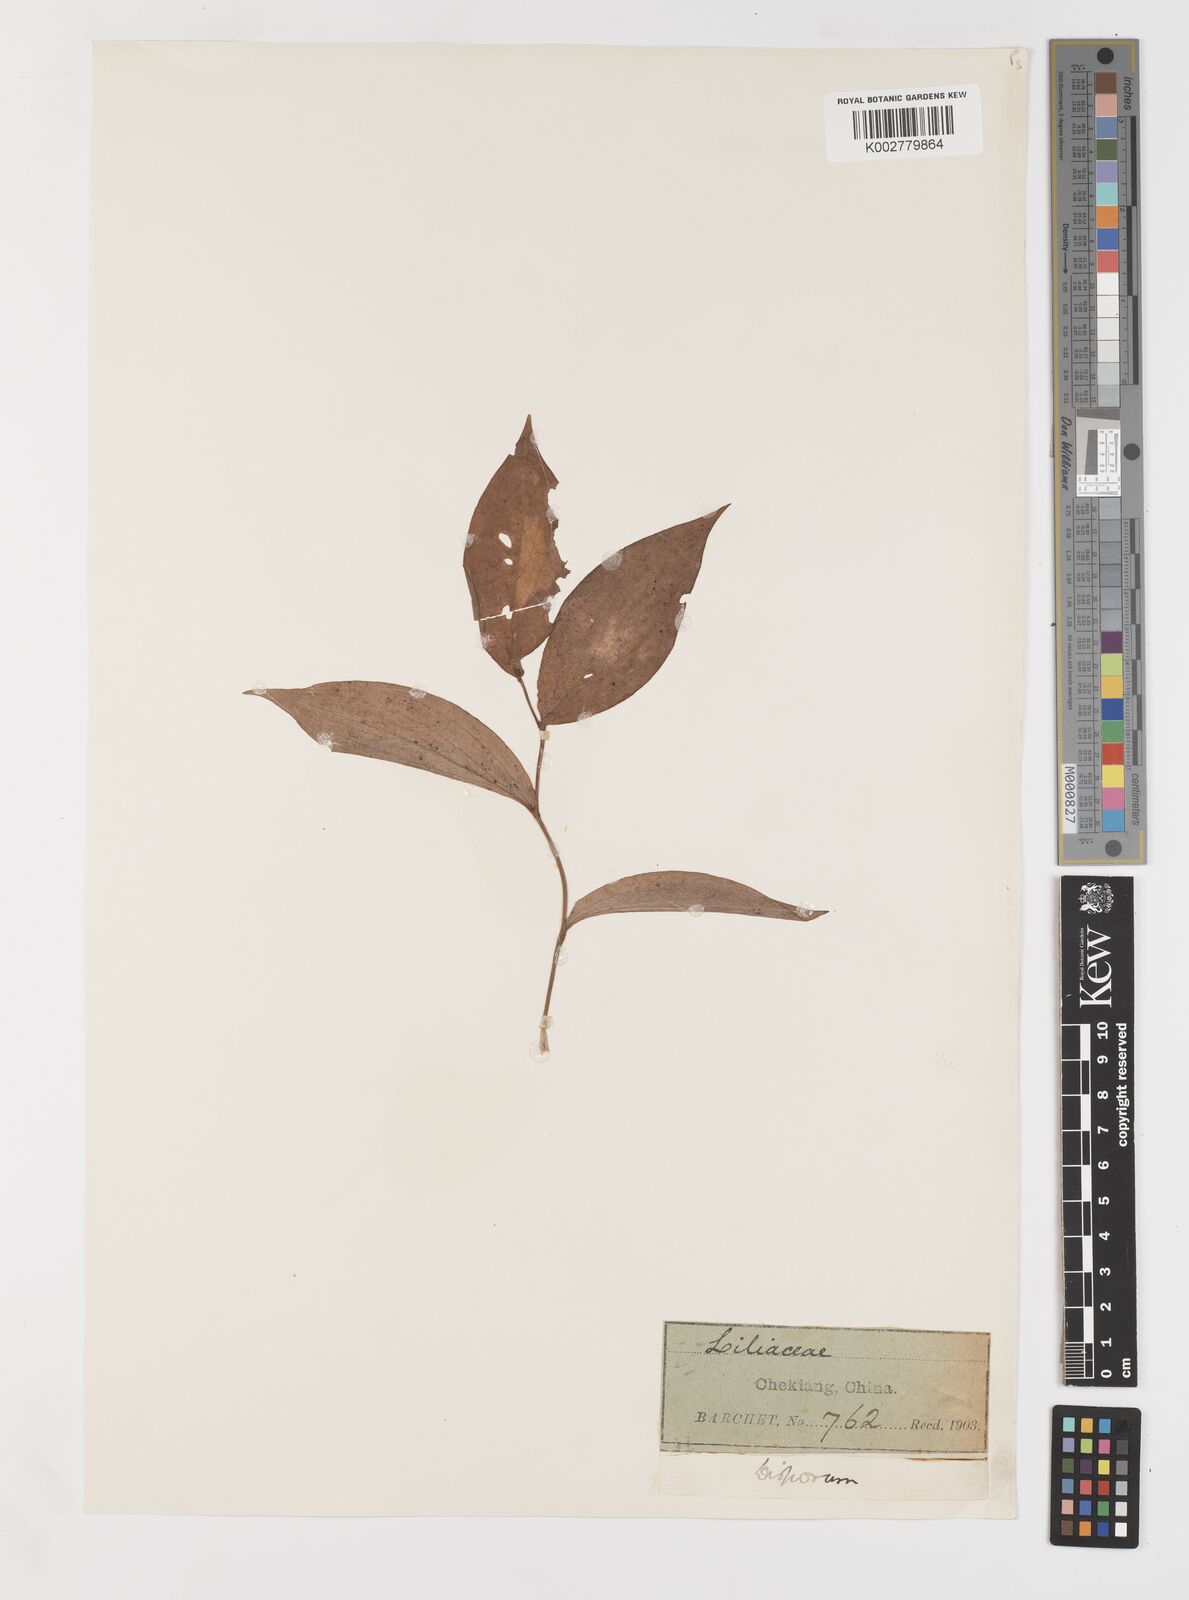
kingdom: Plantae
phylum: Tracheophyta
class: Liliopsida
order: Liliales
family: Colchicaceae
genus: Disporum
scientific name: Disporum
